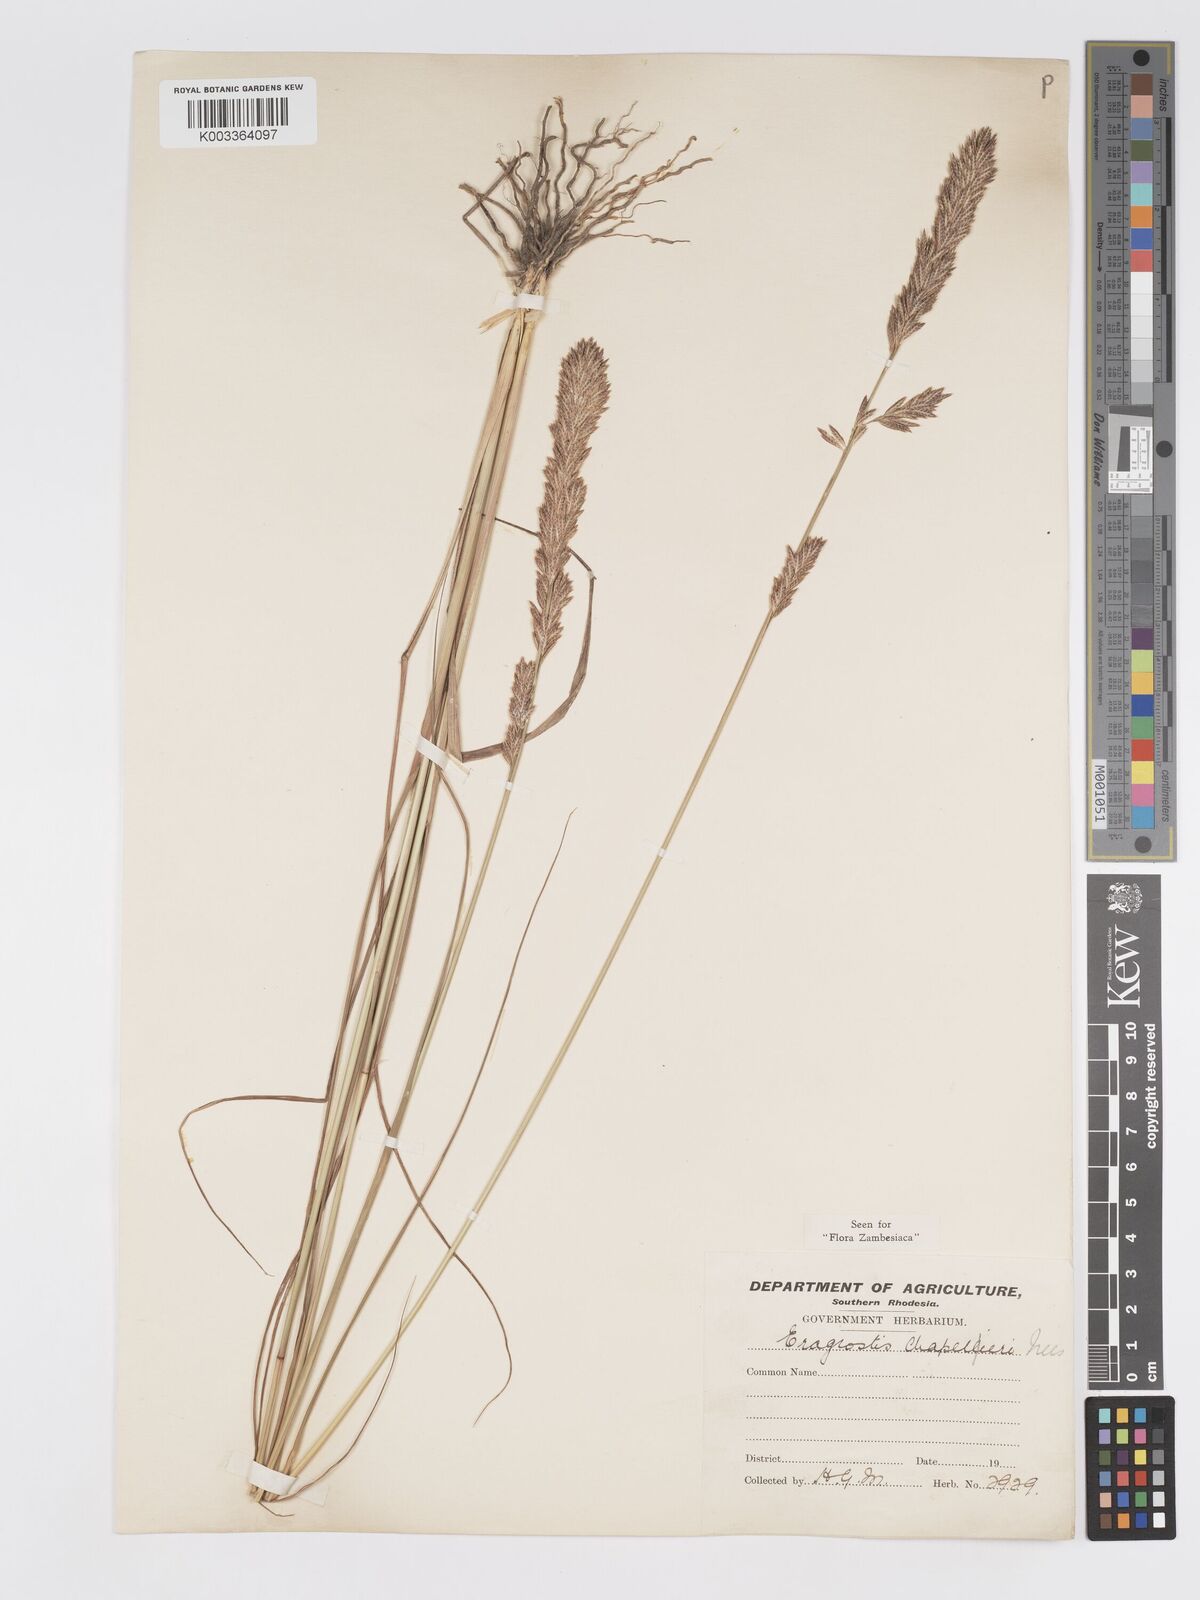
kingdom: Plantae
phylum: Tracheophyta
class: Liliopsida
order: Poales
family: Poaceae
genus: Eragrostis
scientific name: Eragrostis chapelieri
